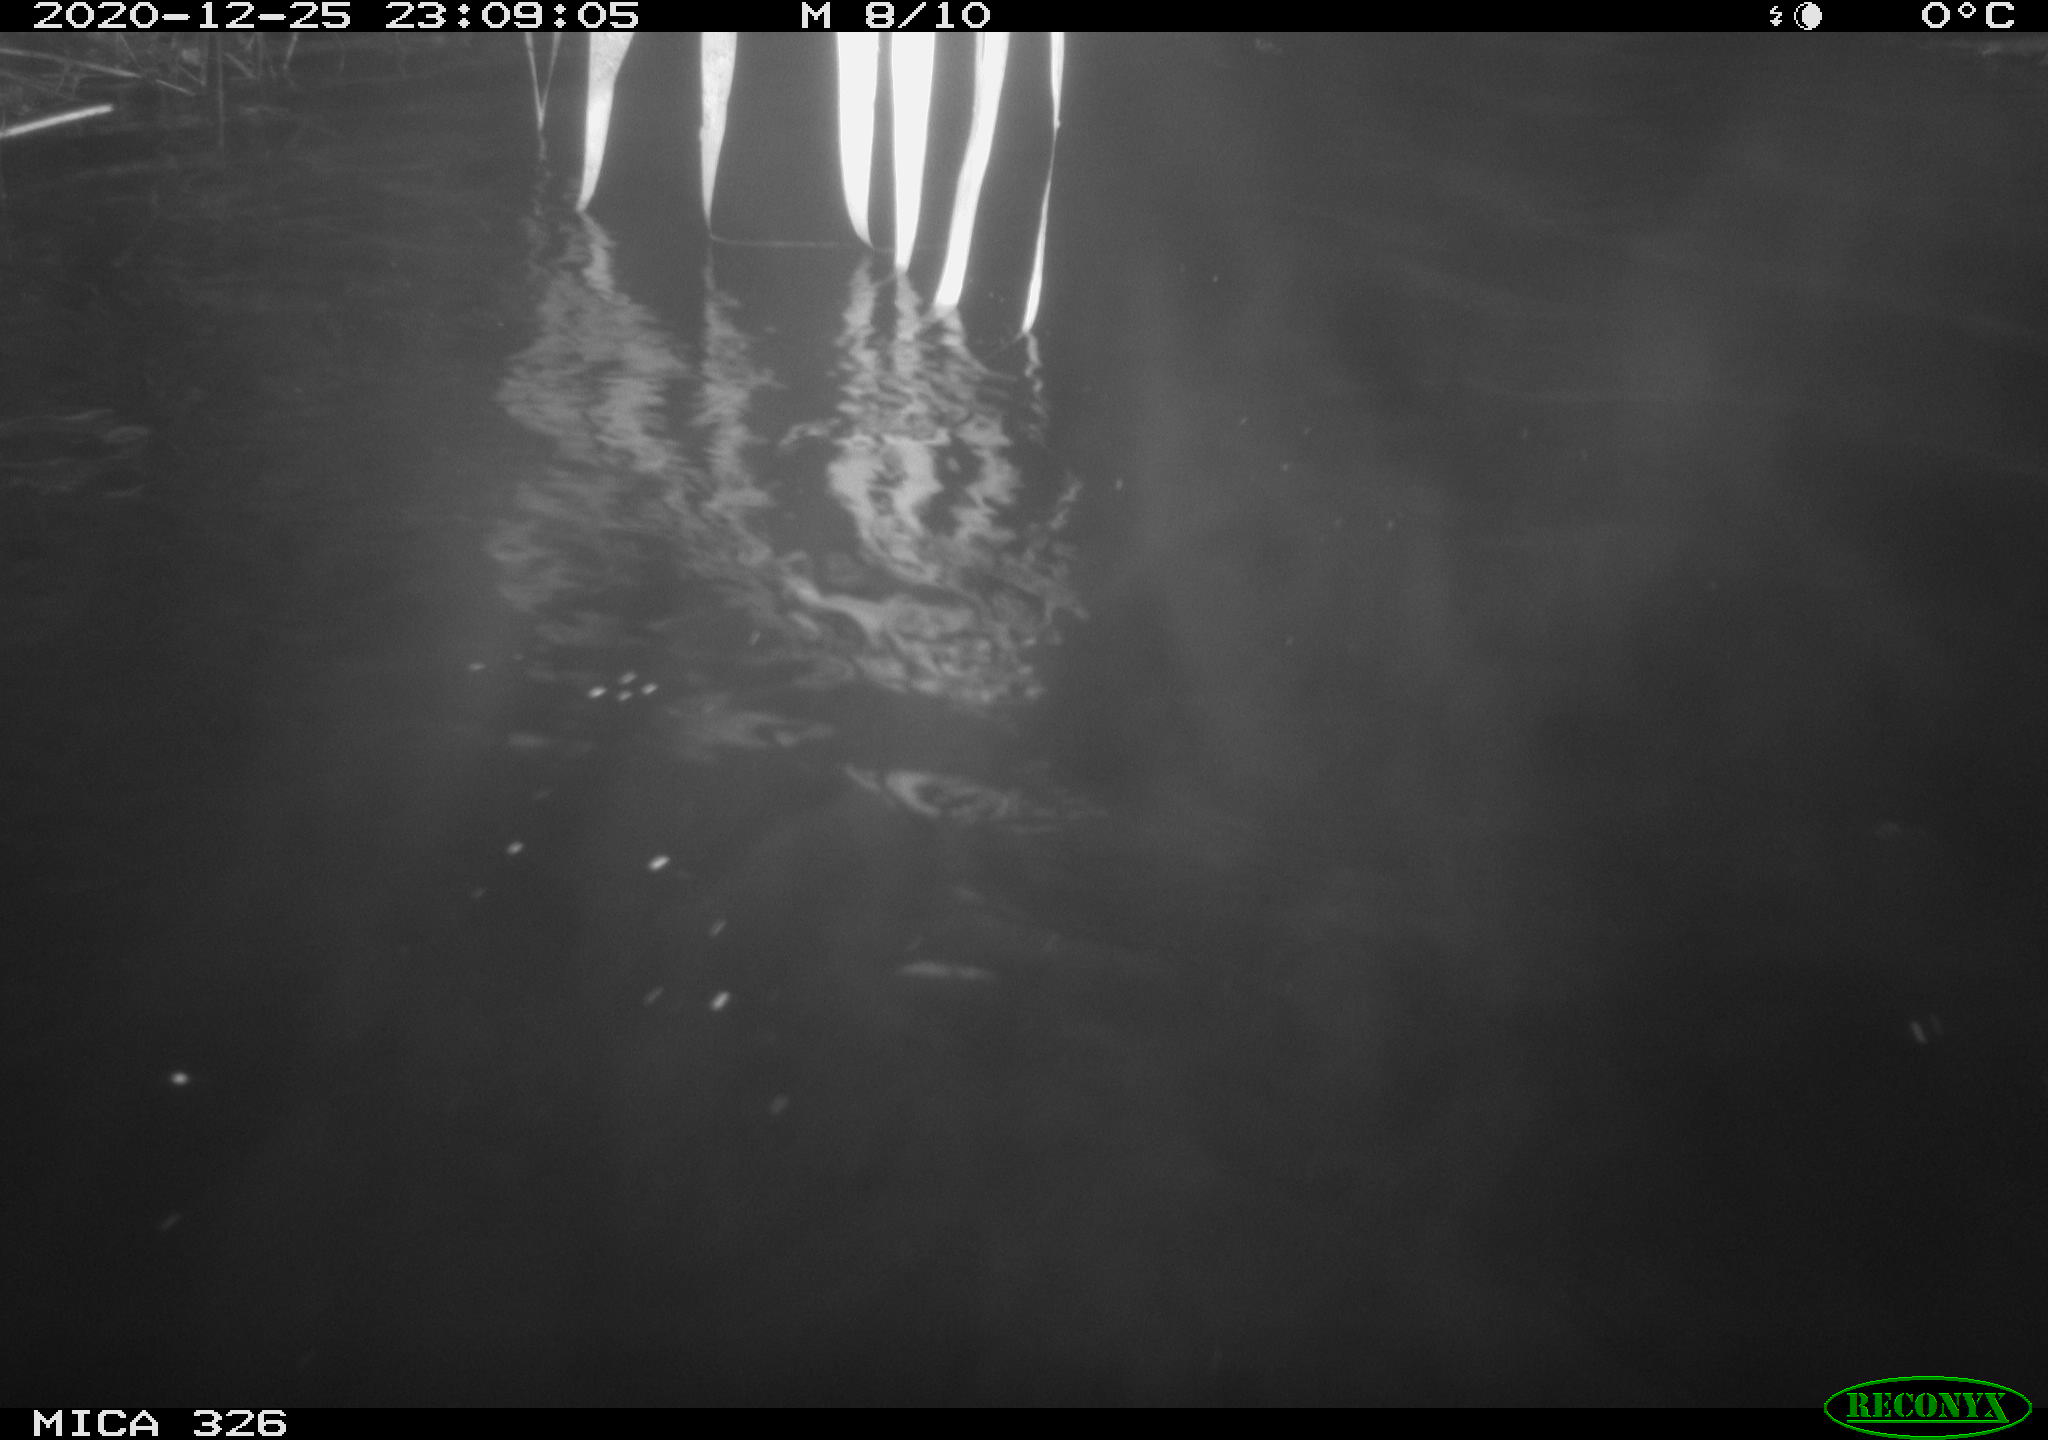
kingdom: Animalia
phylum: Chordata
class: Mammalia
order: Carnivora
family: Mustelidae
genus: Lutra
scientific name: Lutra lutra
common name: European otter
